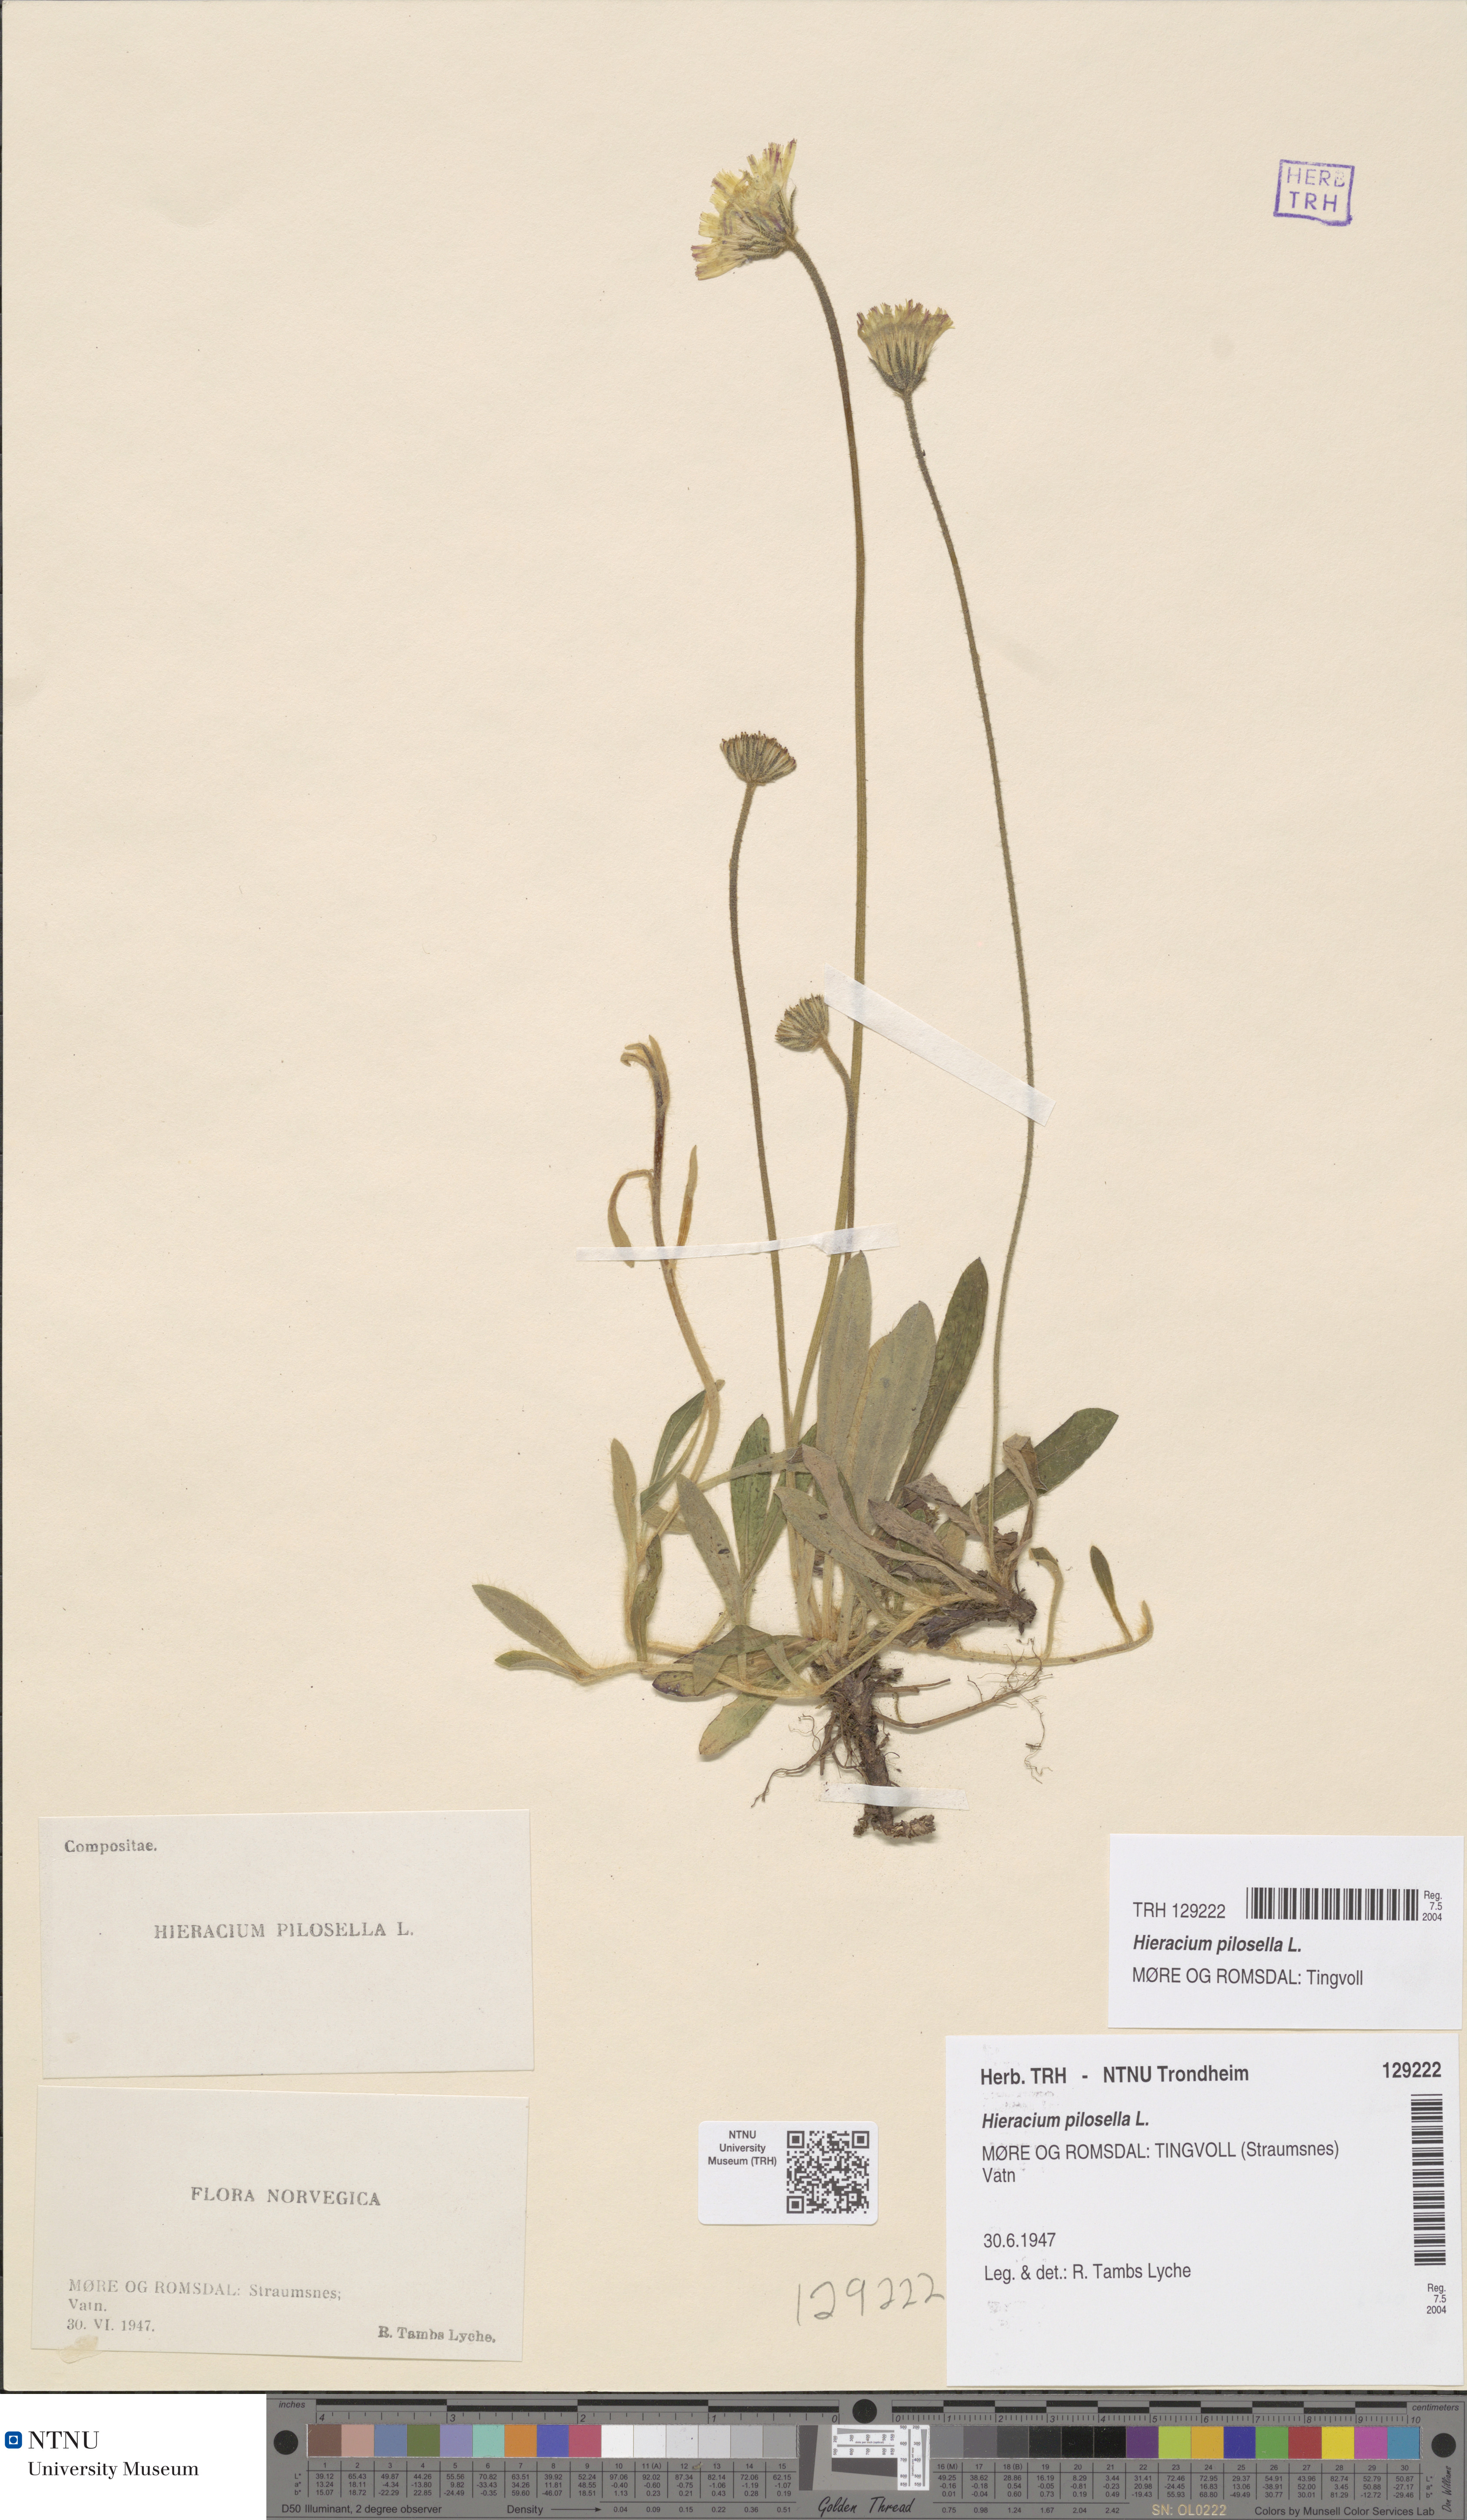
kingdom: Plantae
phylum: Tracheophyta
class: Magnoliopsida
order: Asterales
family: Asteraceae
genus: Pilosella
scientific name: Pilosella officinarum
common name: Mouse-ear hawkweed
